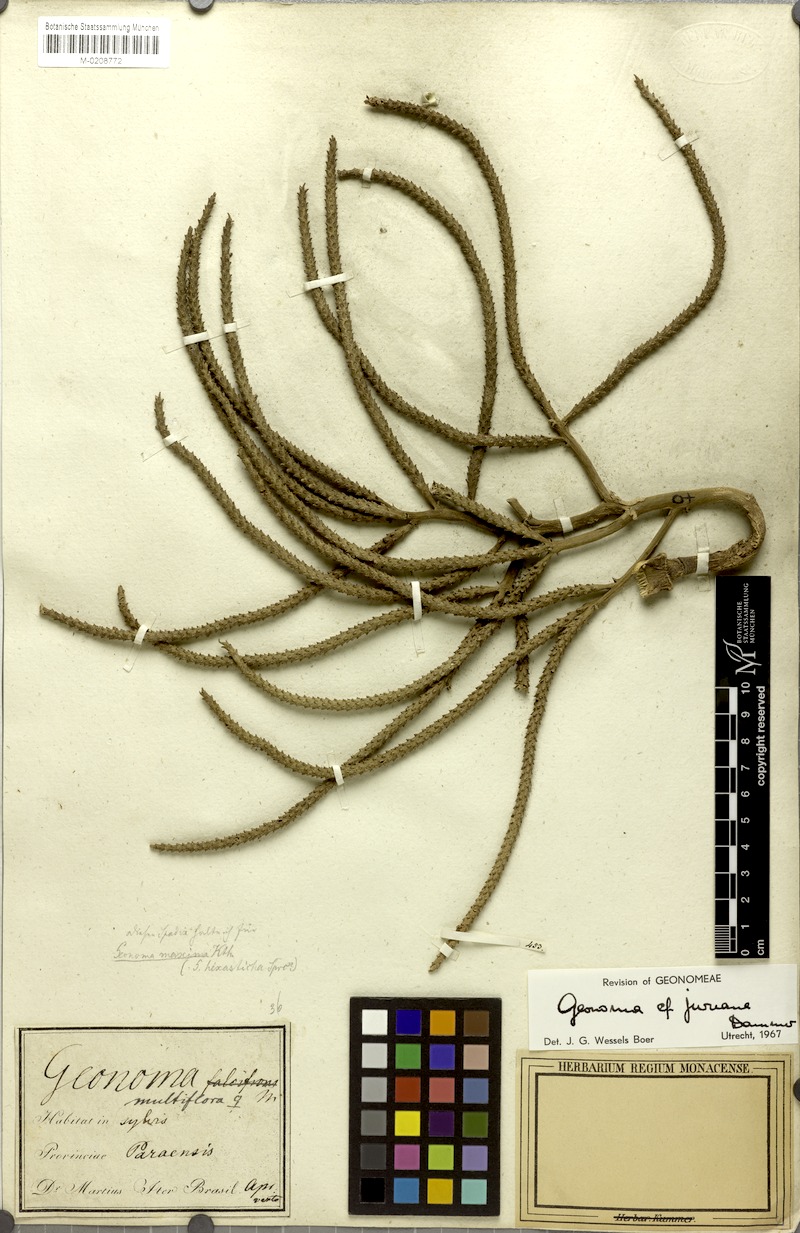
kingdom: Plantae
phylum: Tracheophyta
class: Liliopsida
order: Arecales
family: Arecaceae
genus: Geonoma
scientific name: Geonoma maxima
